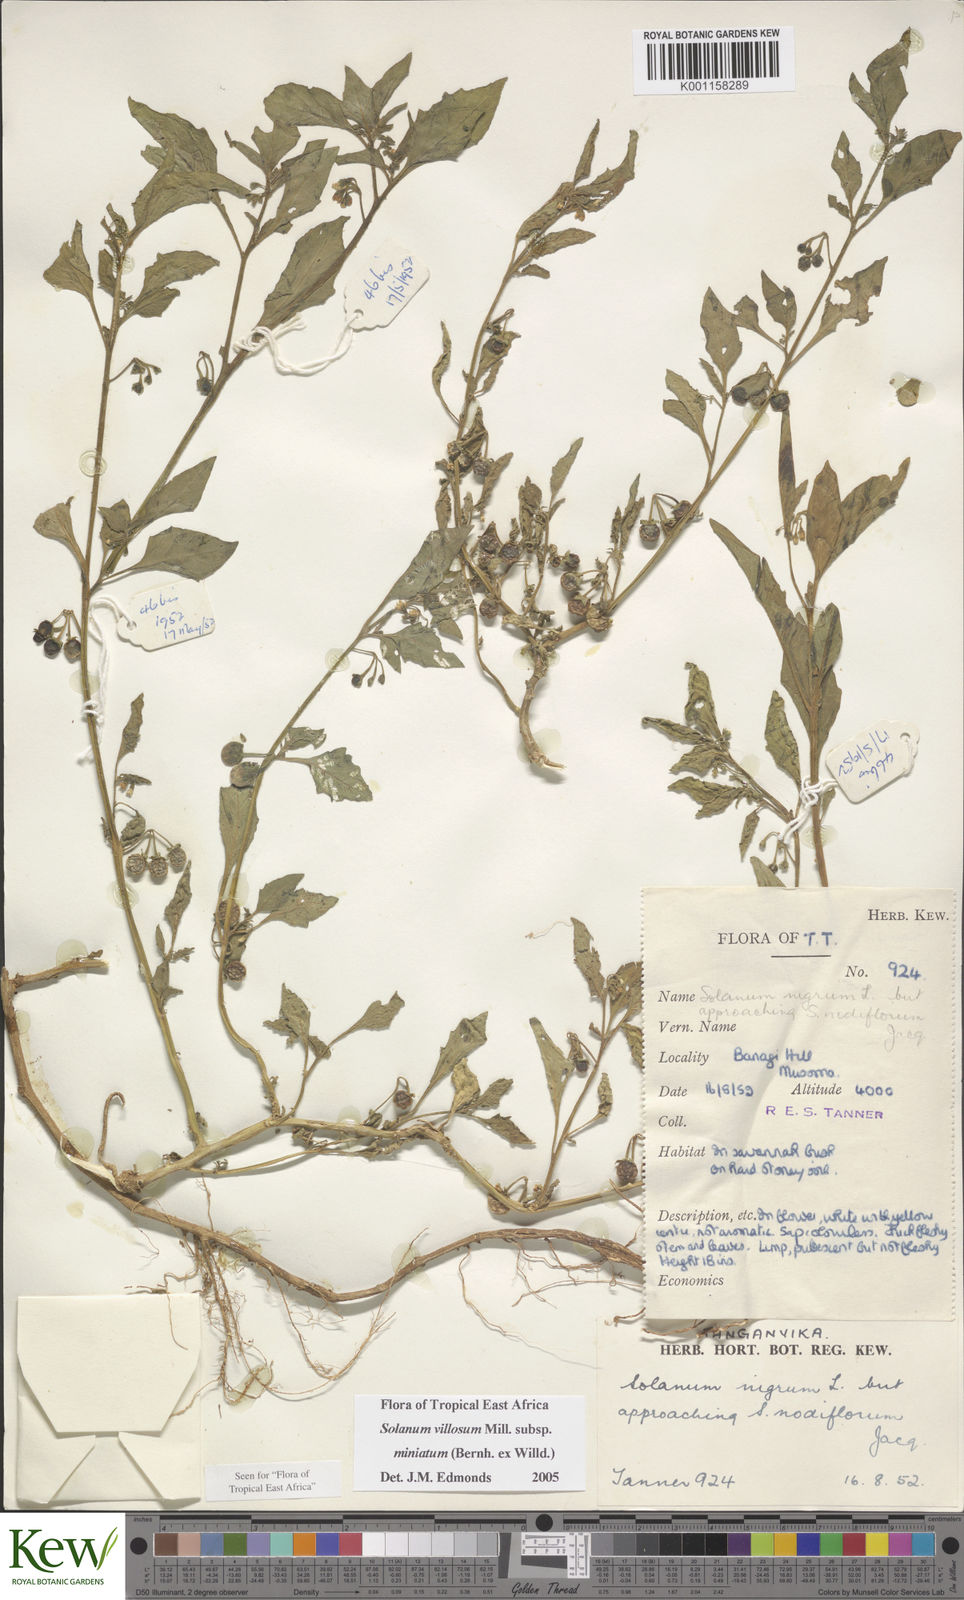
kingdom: Plantae
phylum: Tracheophyta
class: Magnoliopsida
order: Solanales
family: Solanaceae
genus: Solanum
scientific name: Solanum villosum
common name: Red nightshade
